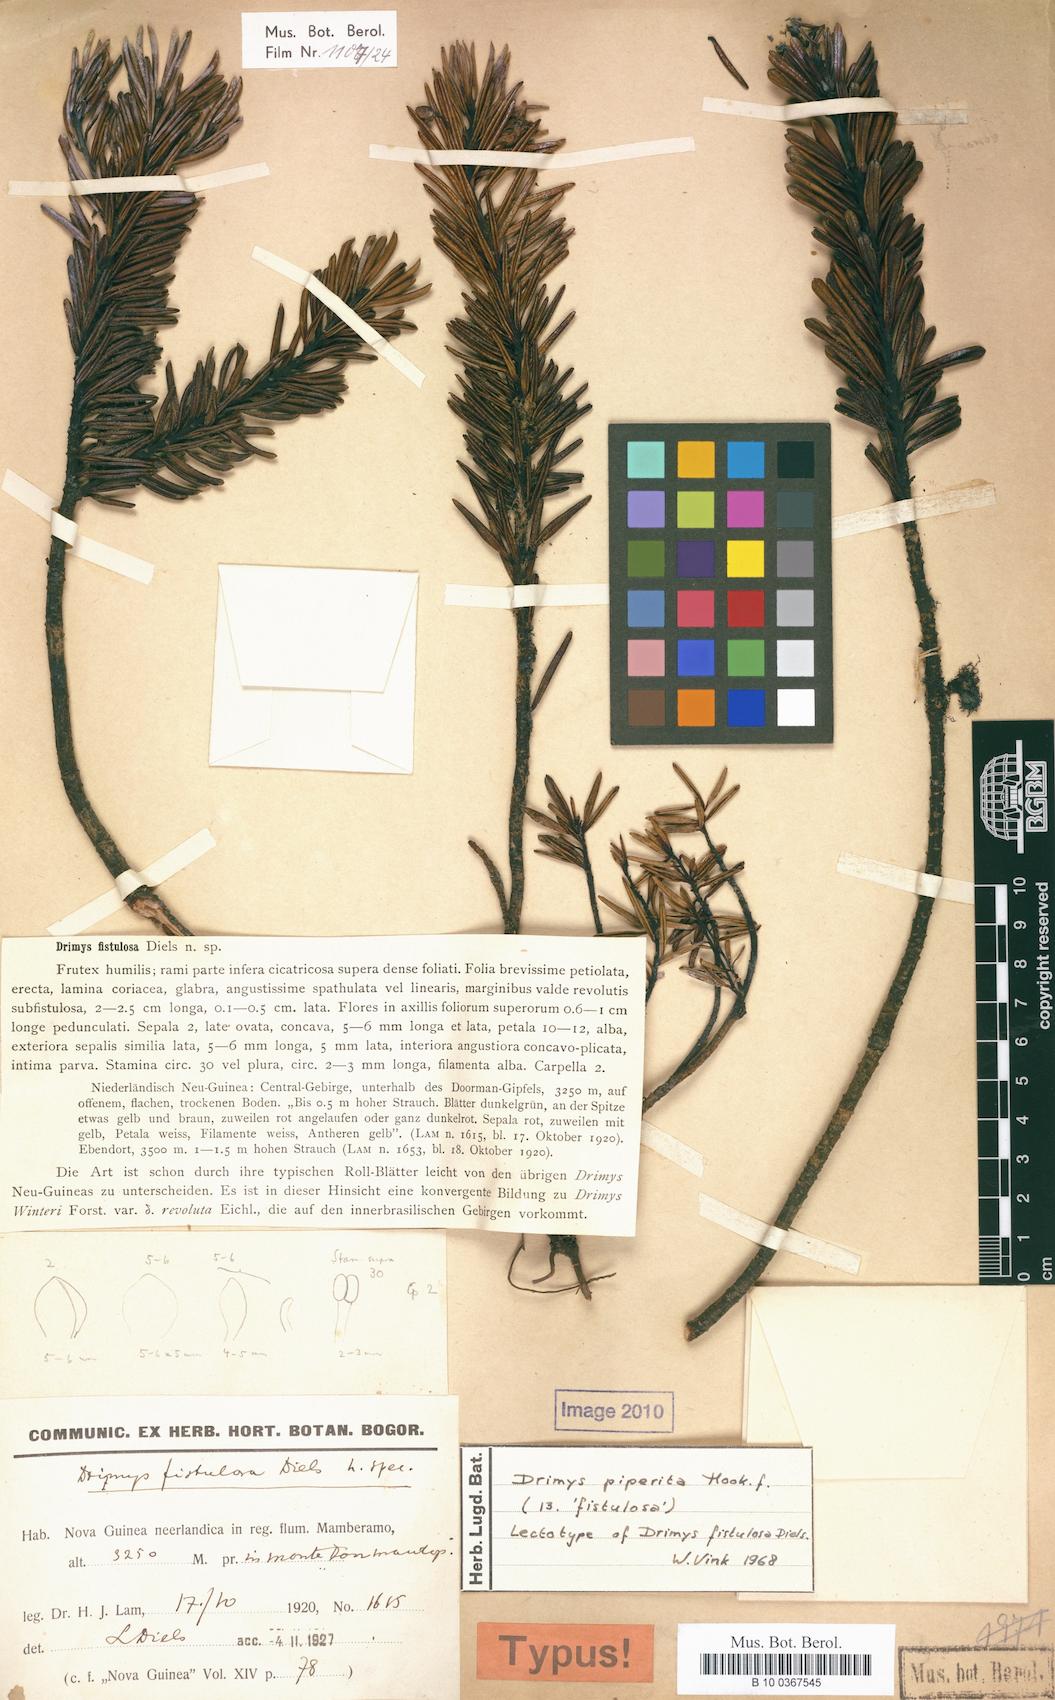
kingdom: Plantae
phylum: Tracheophyta
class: Magnoliopsida
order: Canellales
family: Winteraceae
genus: Drimys
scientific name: Drimys piperita
